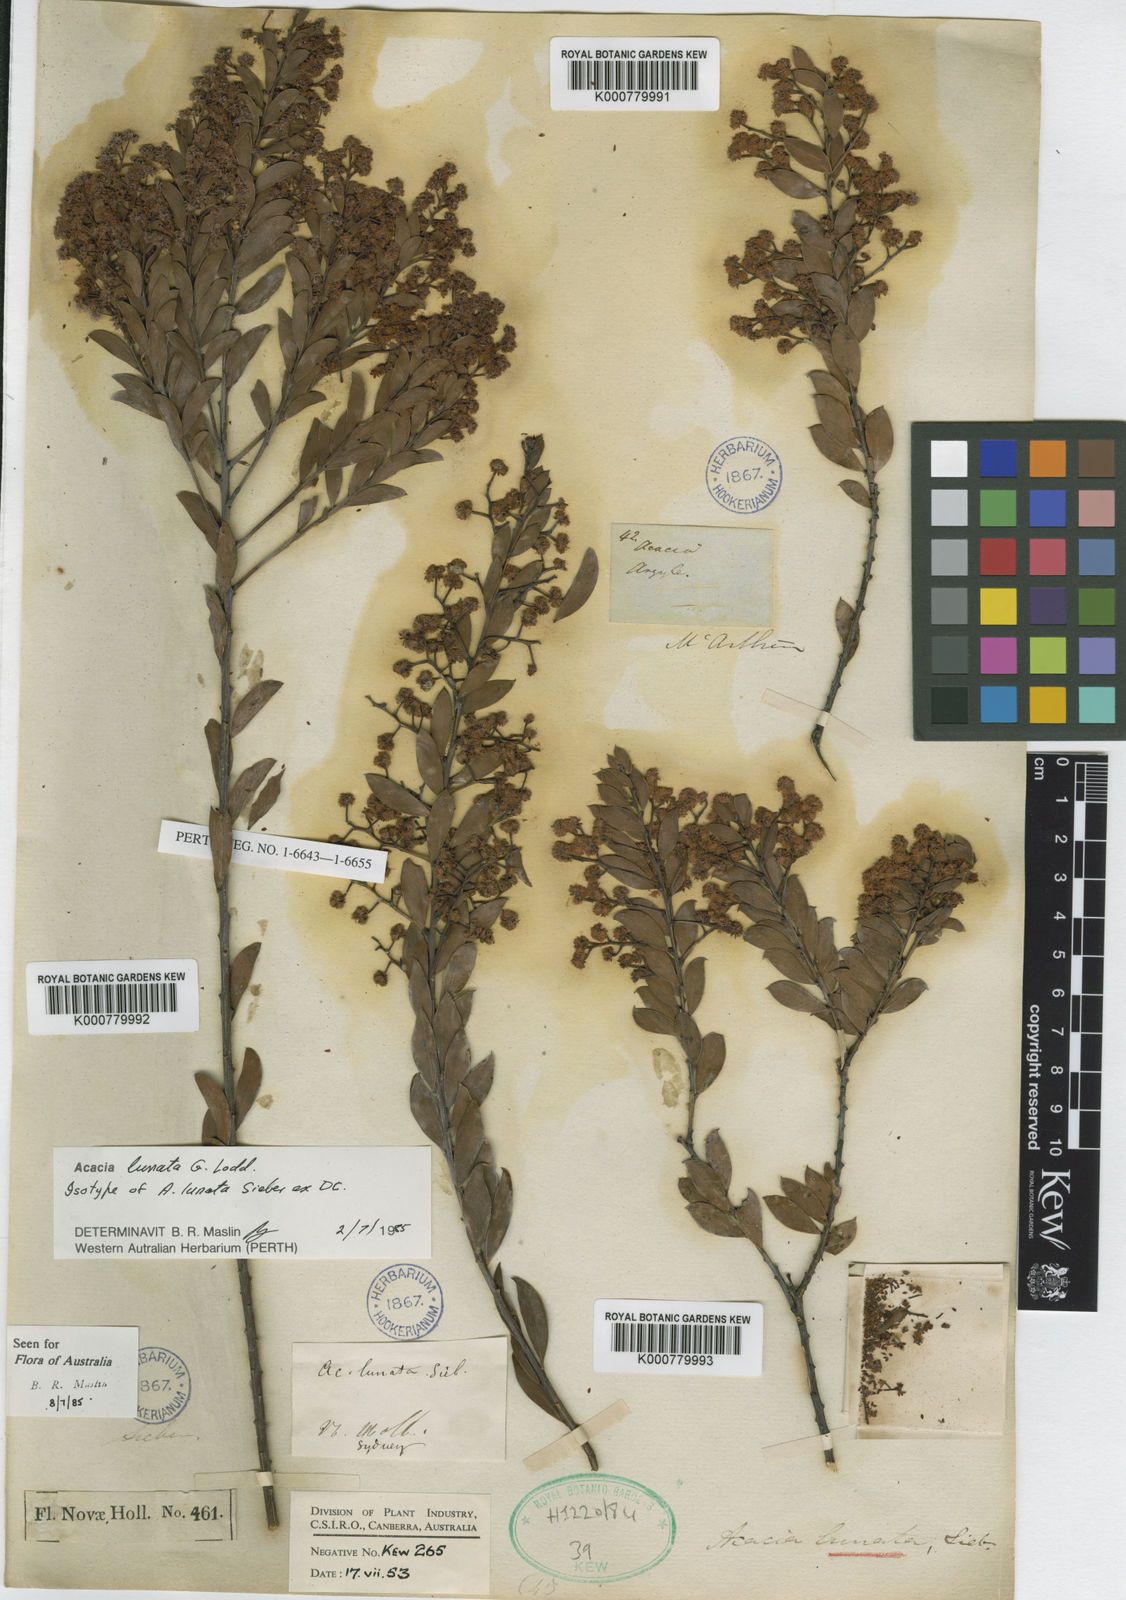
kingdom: Plantae
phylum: Tracheophyta
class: Magnoliopsida
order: Fabales
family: Fabaceae
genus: Acacia
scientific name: Acacia
